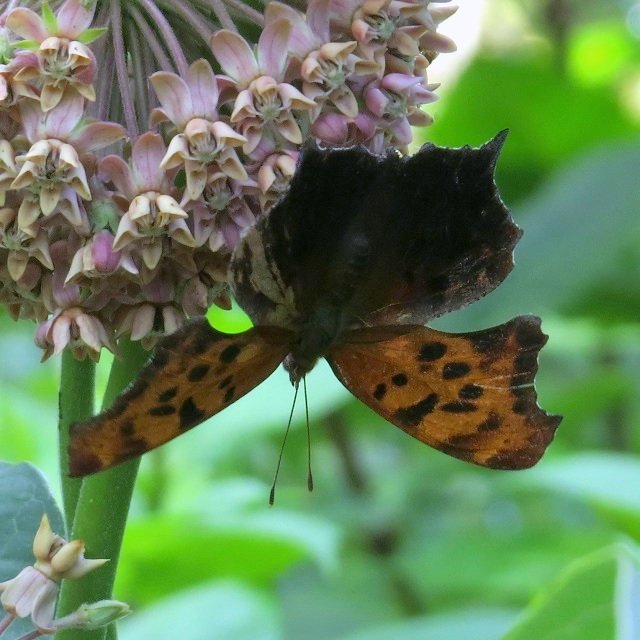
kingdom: Animalia
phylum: Arthropoda
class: Insecta
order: Lepidoptera
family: Nymphalidae
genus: Polygonia
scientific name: Polygonia interrogationis
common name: Question Mark
